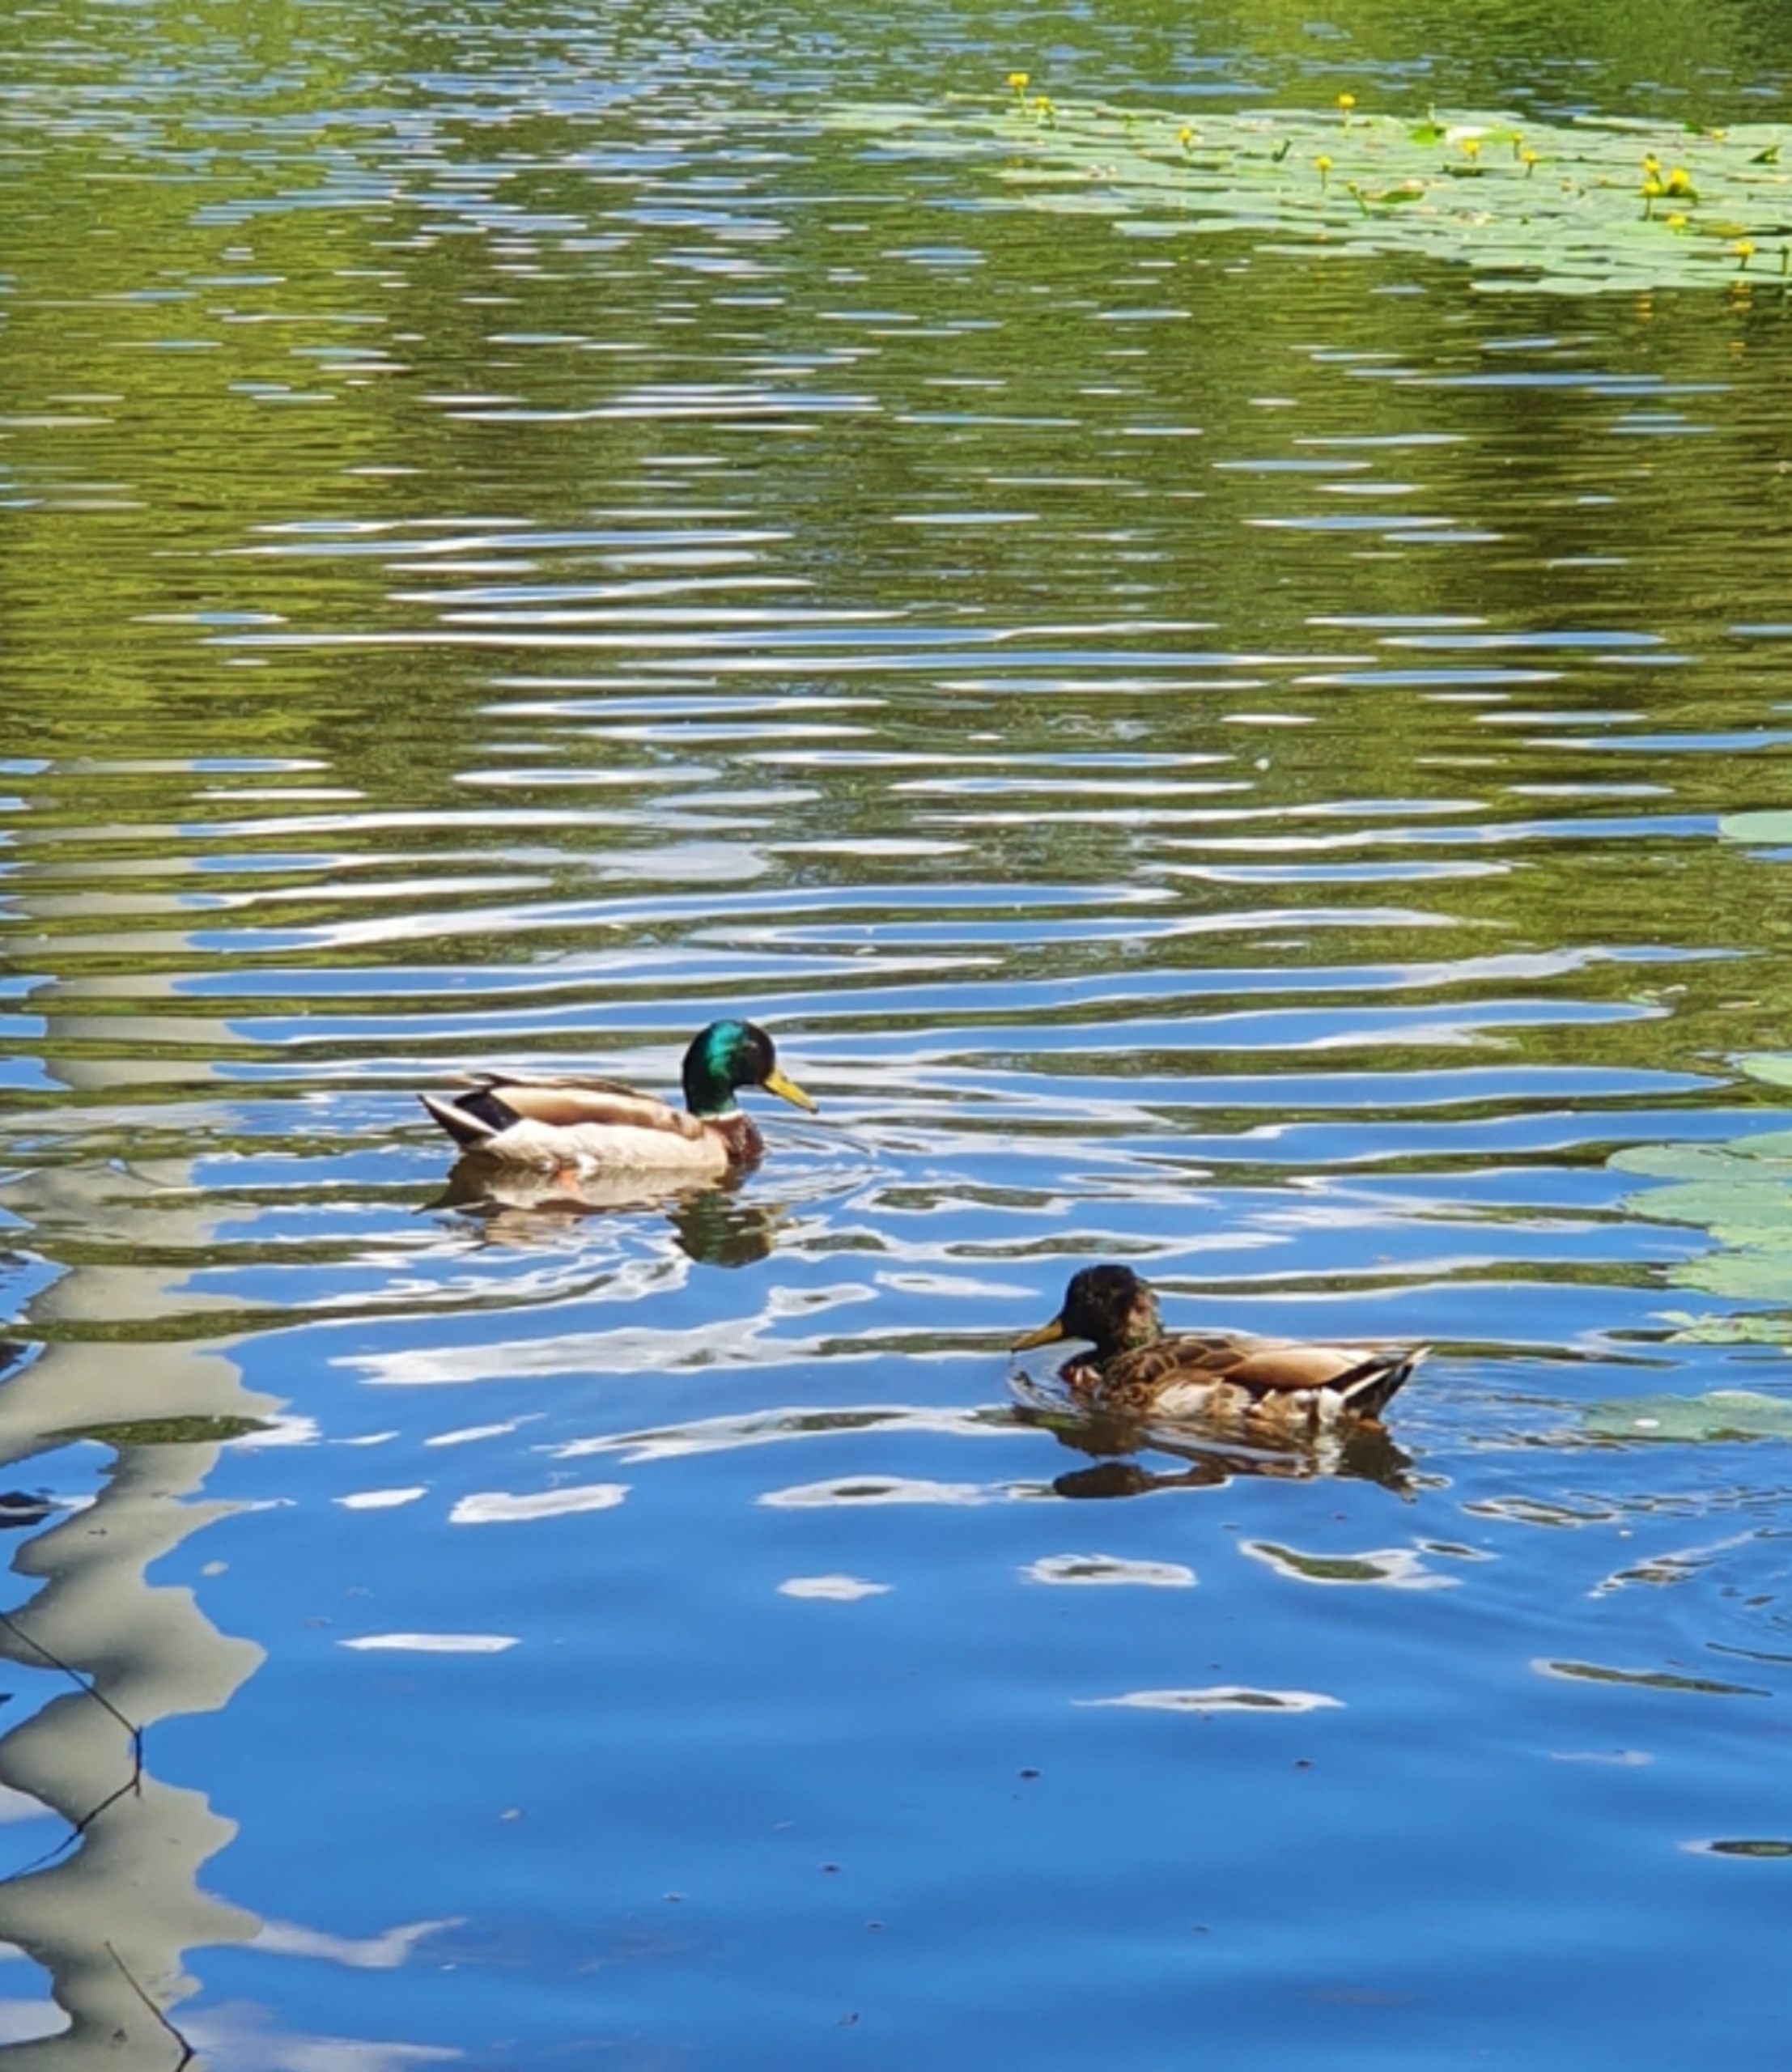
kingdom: Animalia
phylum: Chordata
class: Aves
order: Anseriformes
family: Anatidae
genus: Anas
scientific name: Anas platyrhynchos
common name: Gråand
